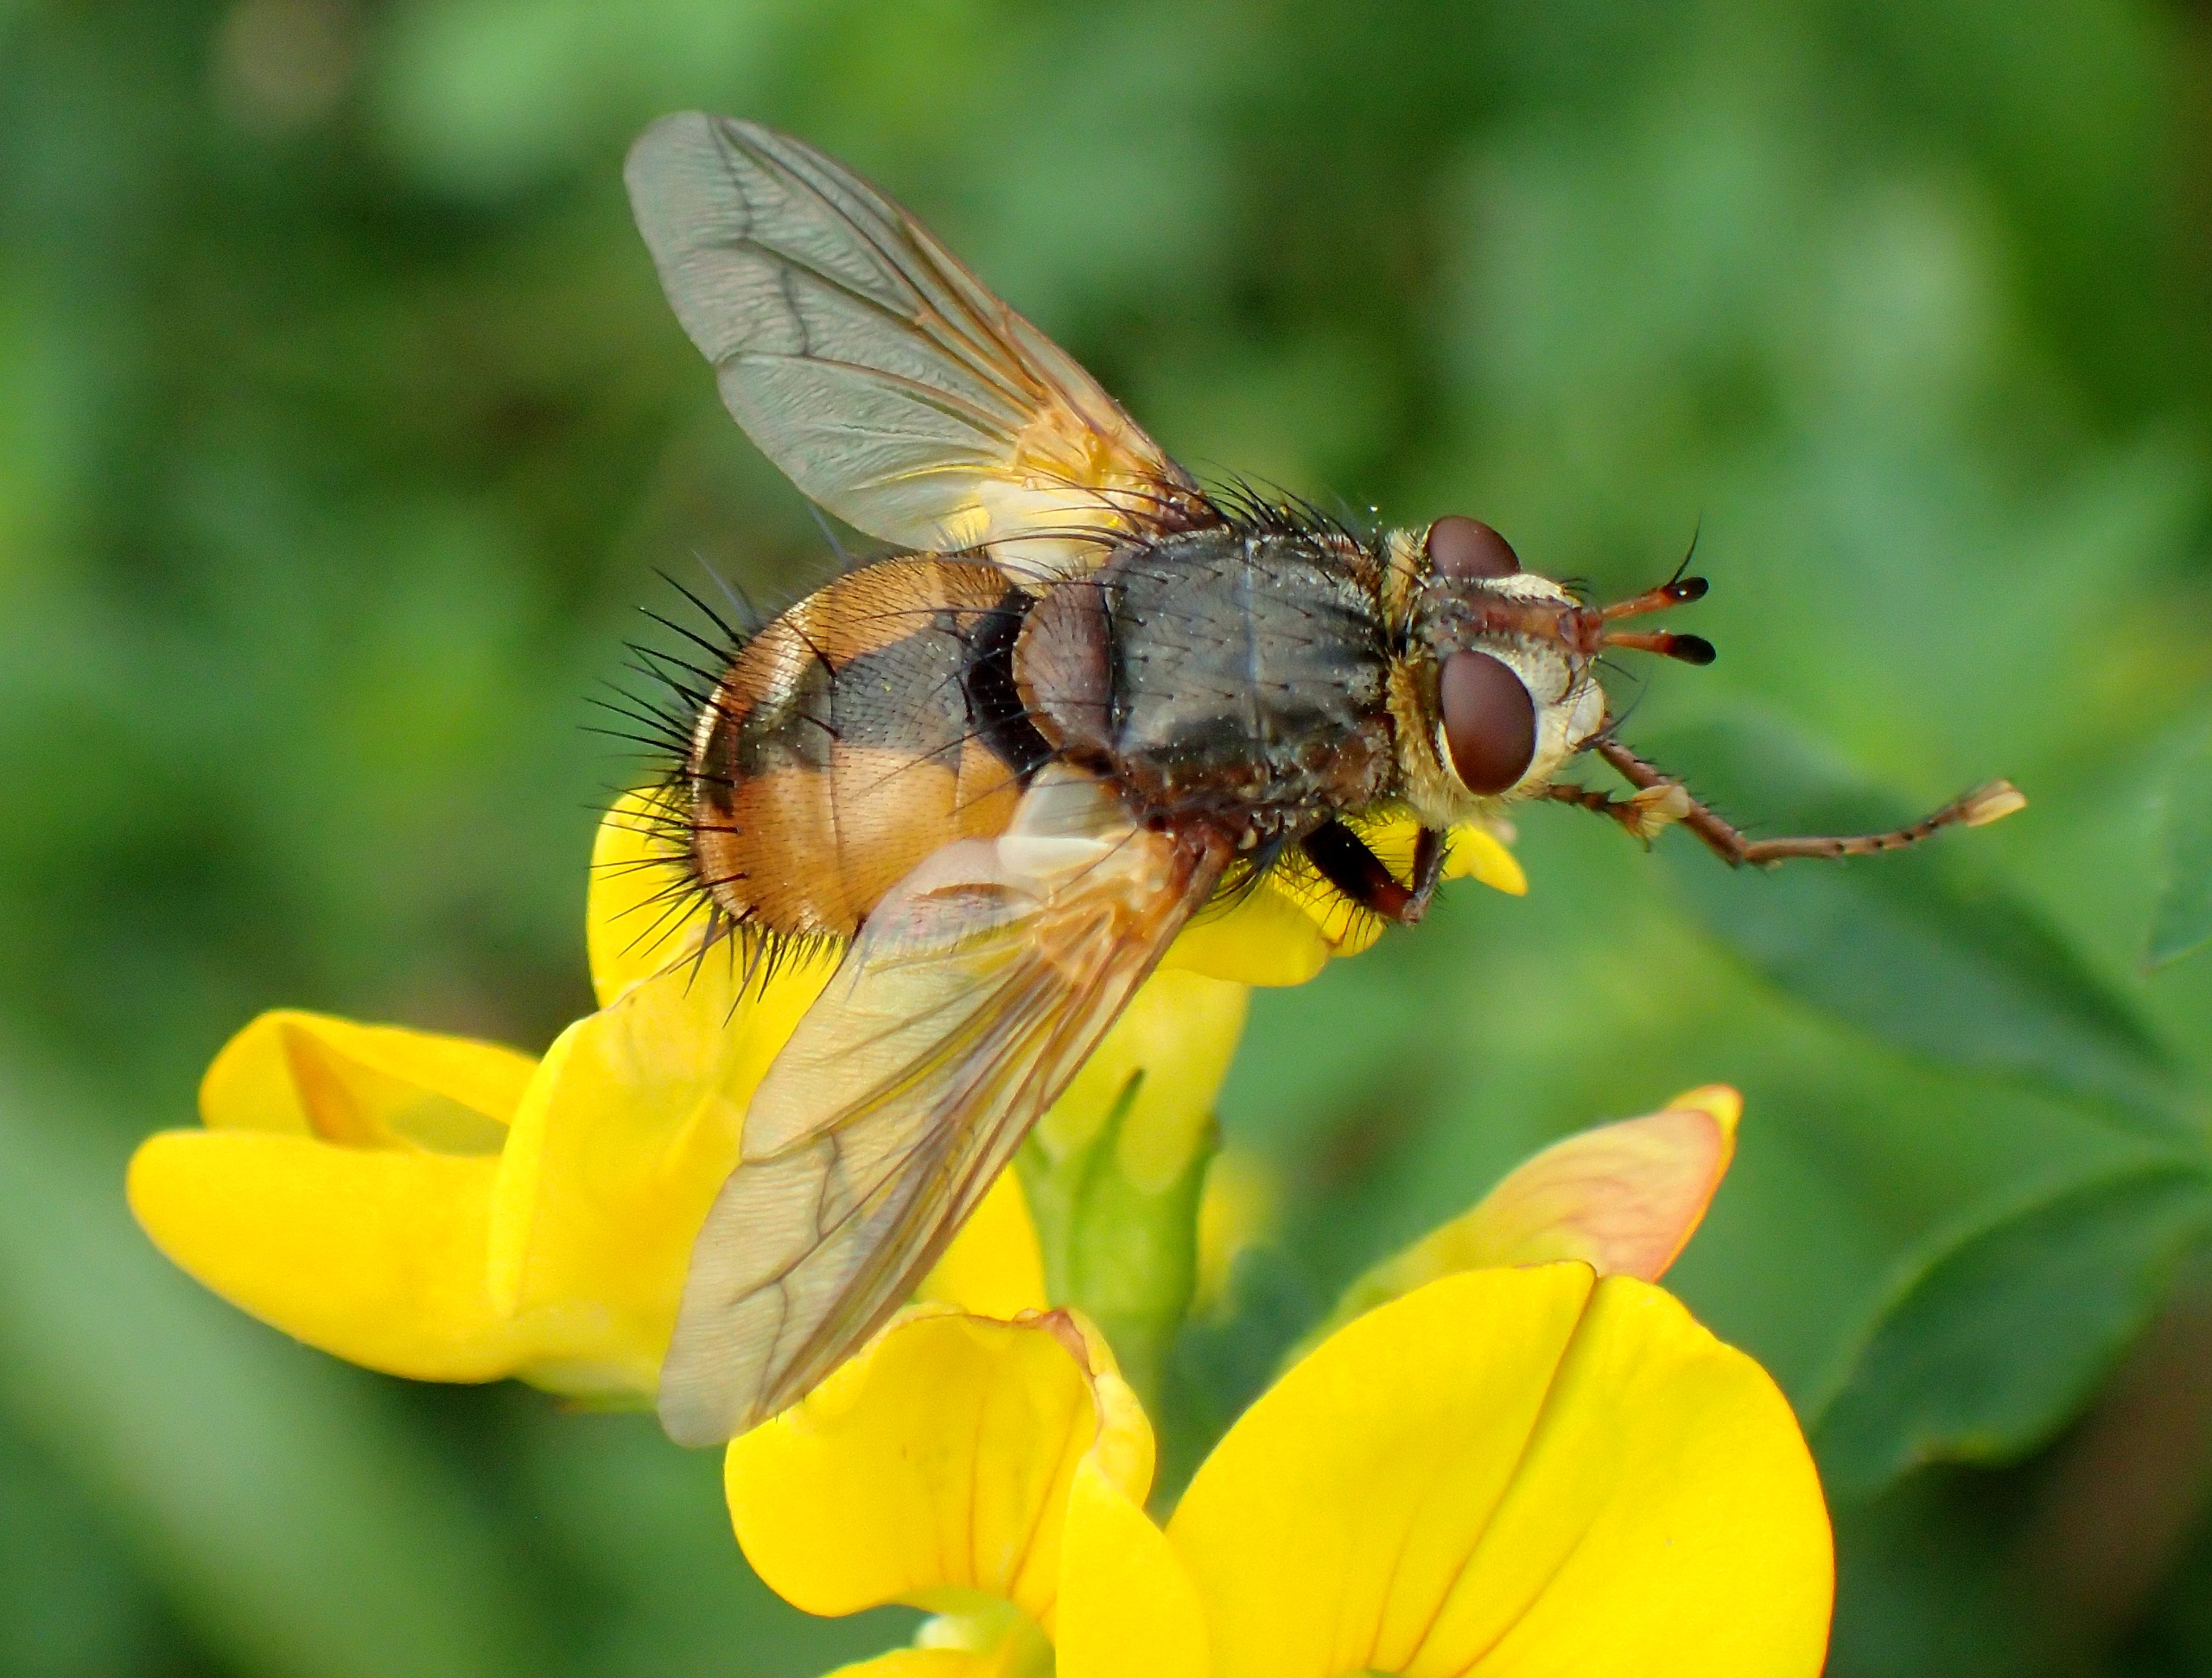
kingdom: Animalia
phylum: Arthropoda
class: Insecta
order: Diptera
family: Tachinidae
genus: Tachina
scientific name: Tachina fera
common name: Mellemfluen oskar
